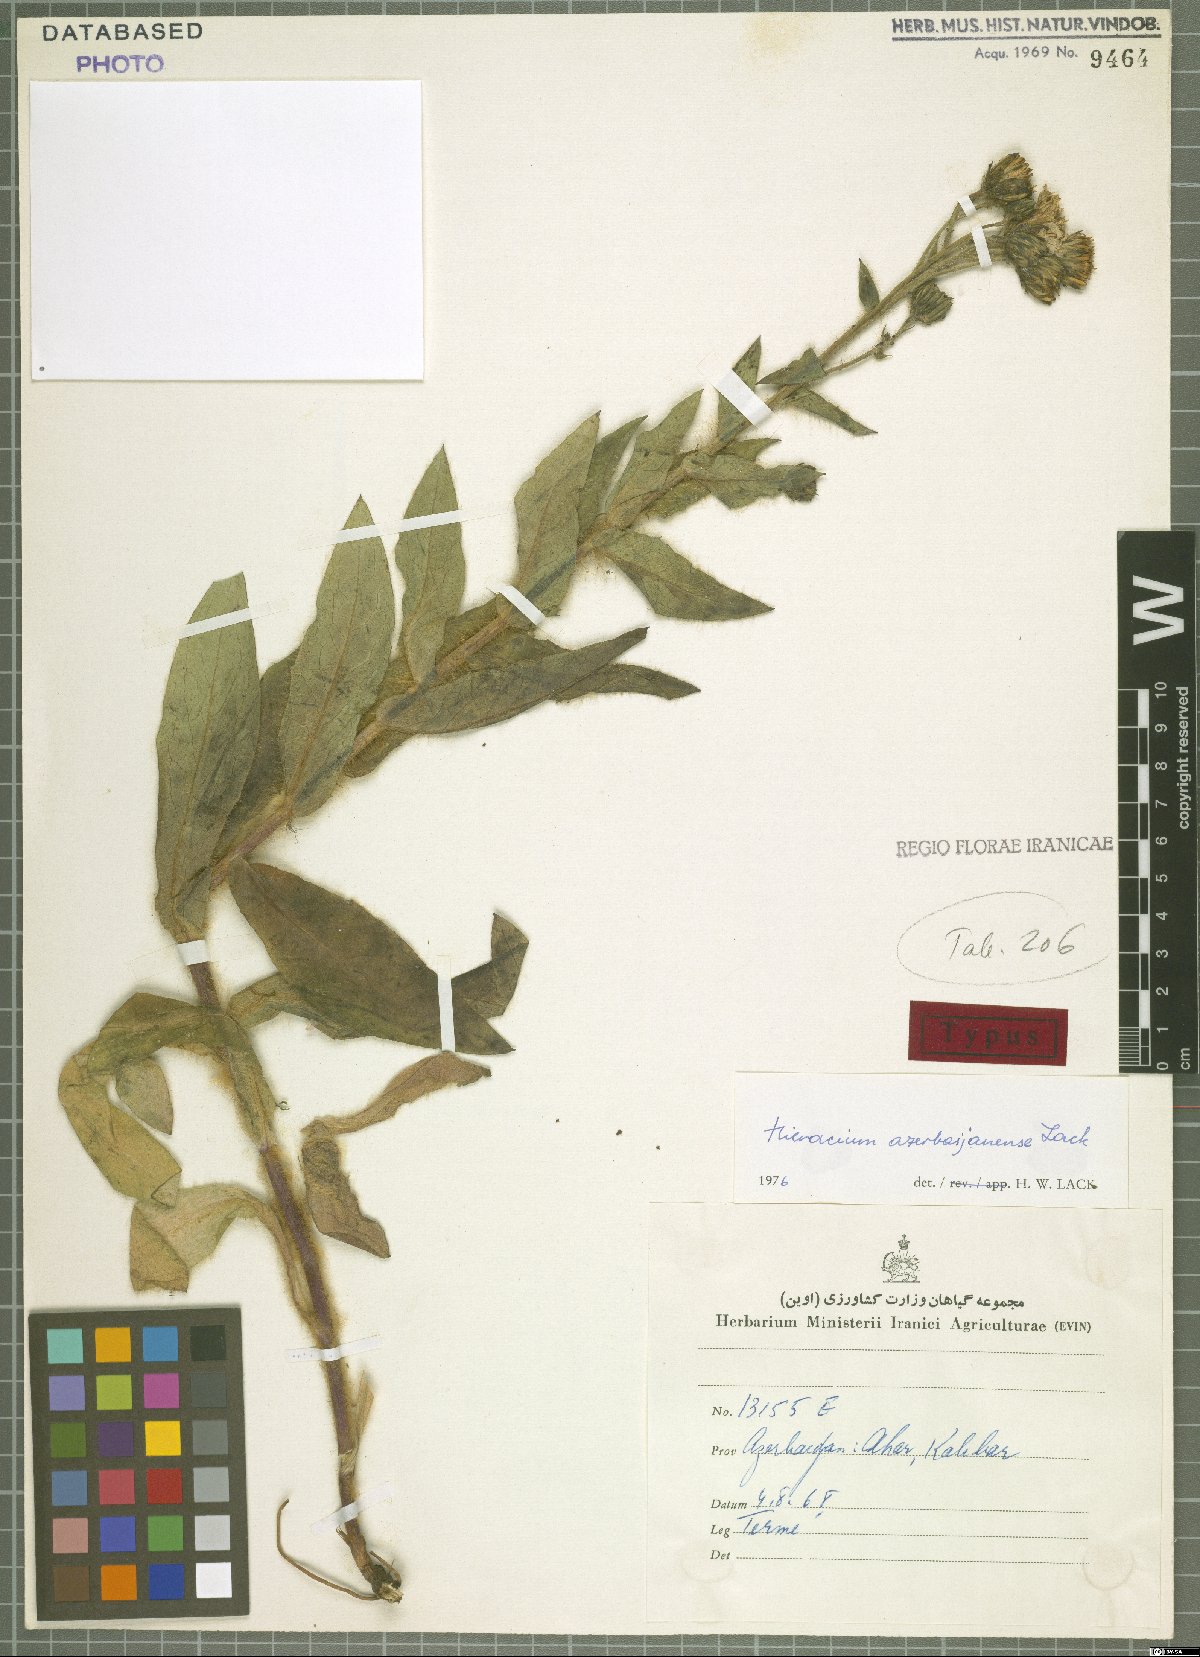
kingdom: Plantae
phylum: Tracheophyta
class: Magnoliopsida
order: Asterales
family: Asteraceae
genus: Hieracium
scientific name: Hieracium azerbaijanense
